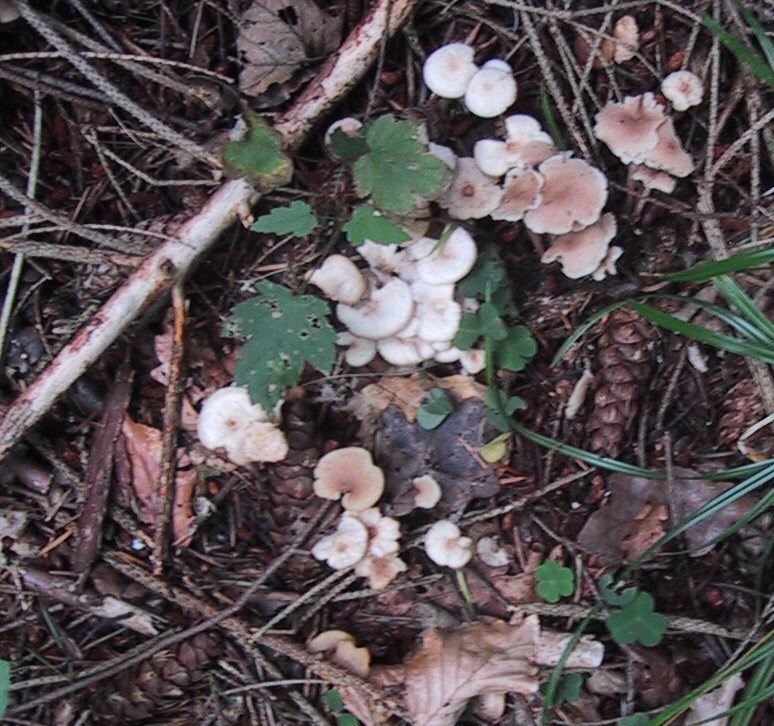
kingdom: Fungi
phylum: Basidiomycota
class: Agaricomycetes
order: Agaricales
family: Omphalotaceae
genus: Collybiopsis
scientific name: Collybiopsis confluens
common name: knippe-fladhat
